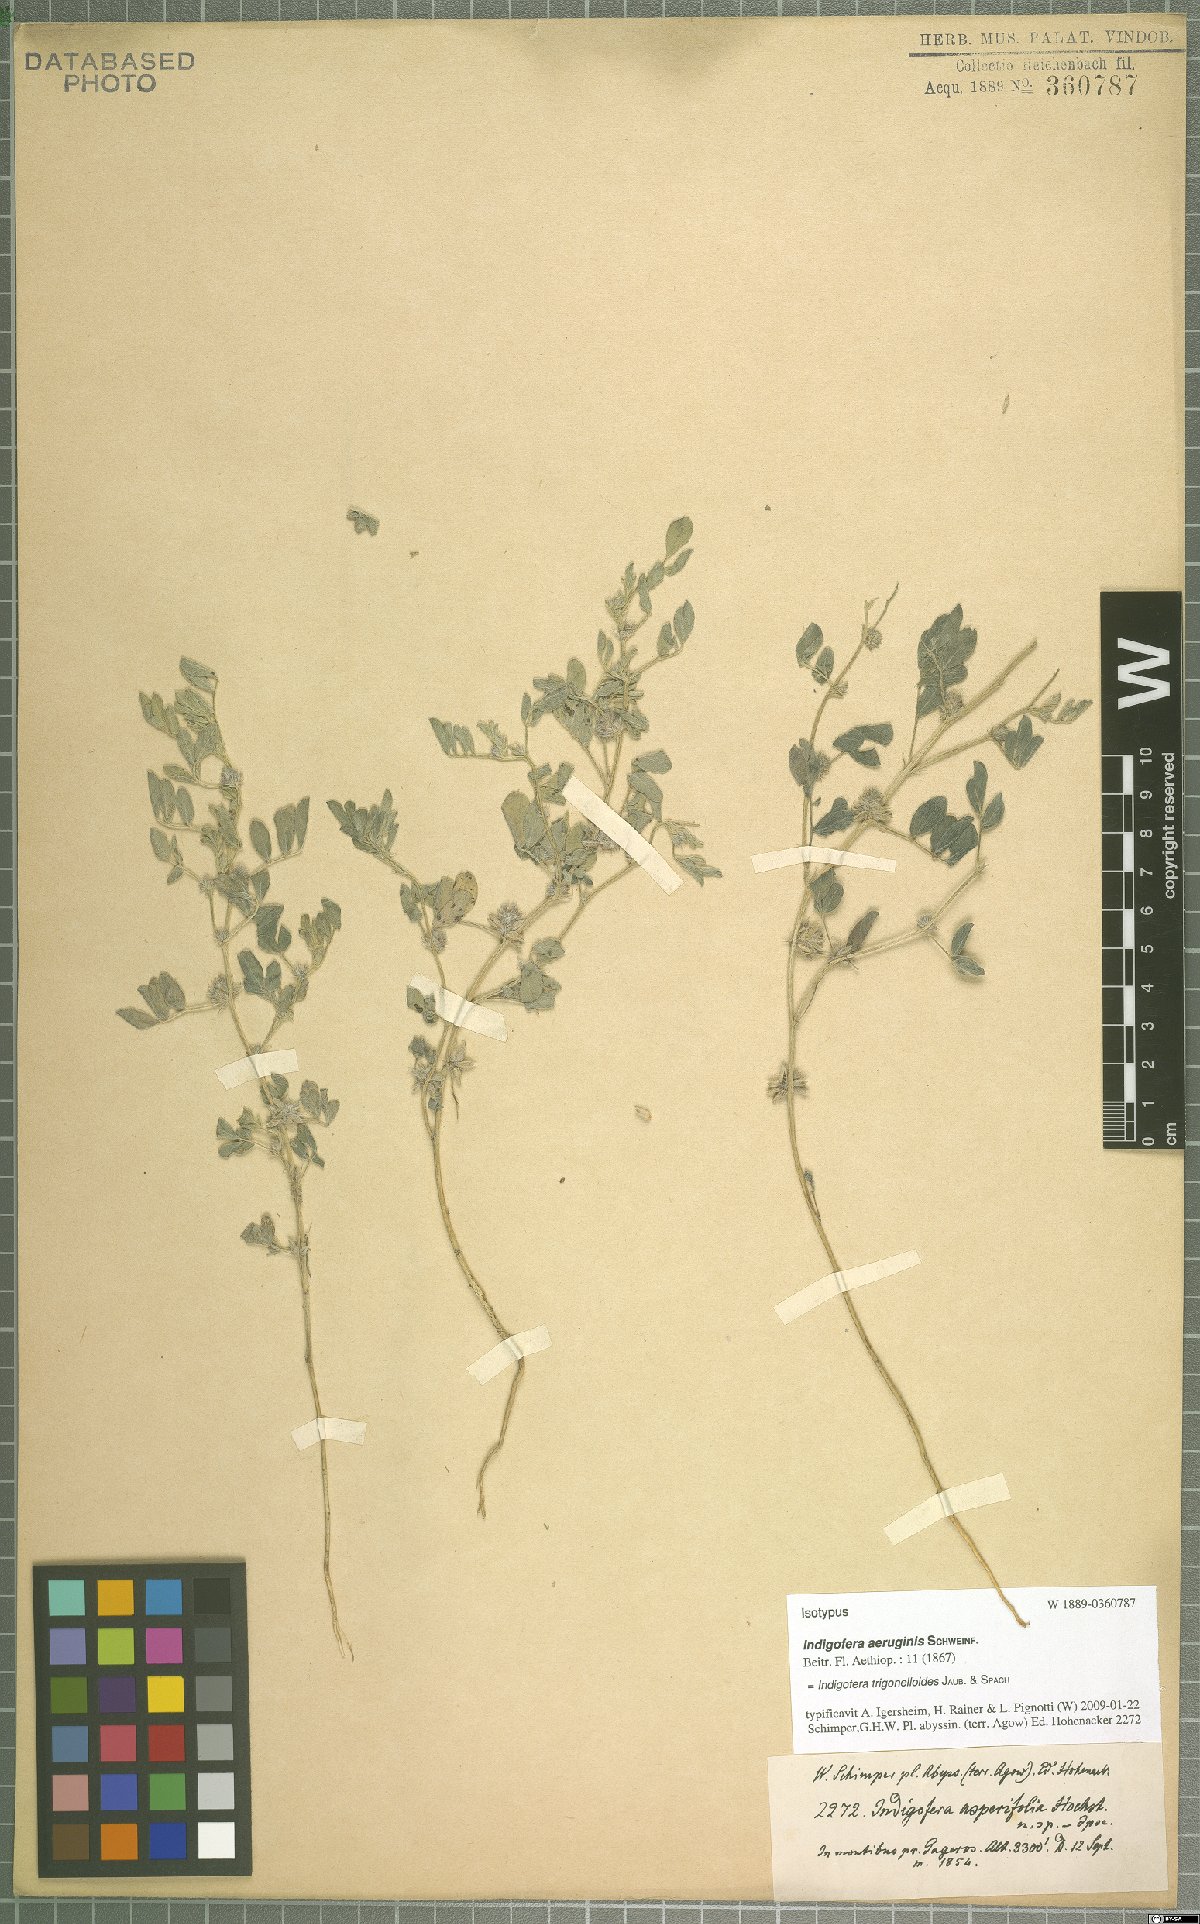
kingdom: Plantae
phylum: Tracheophyta
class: Magnoliopsida
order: Fabales
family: Fabaceae
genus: Indigofera
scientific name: Indigofera trigonelloides
